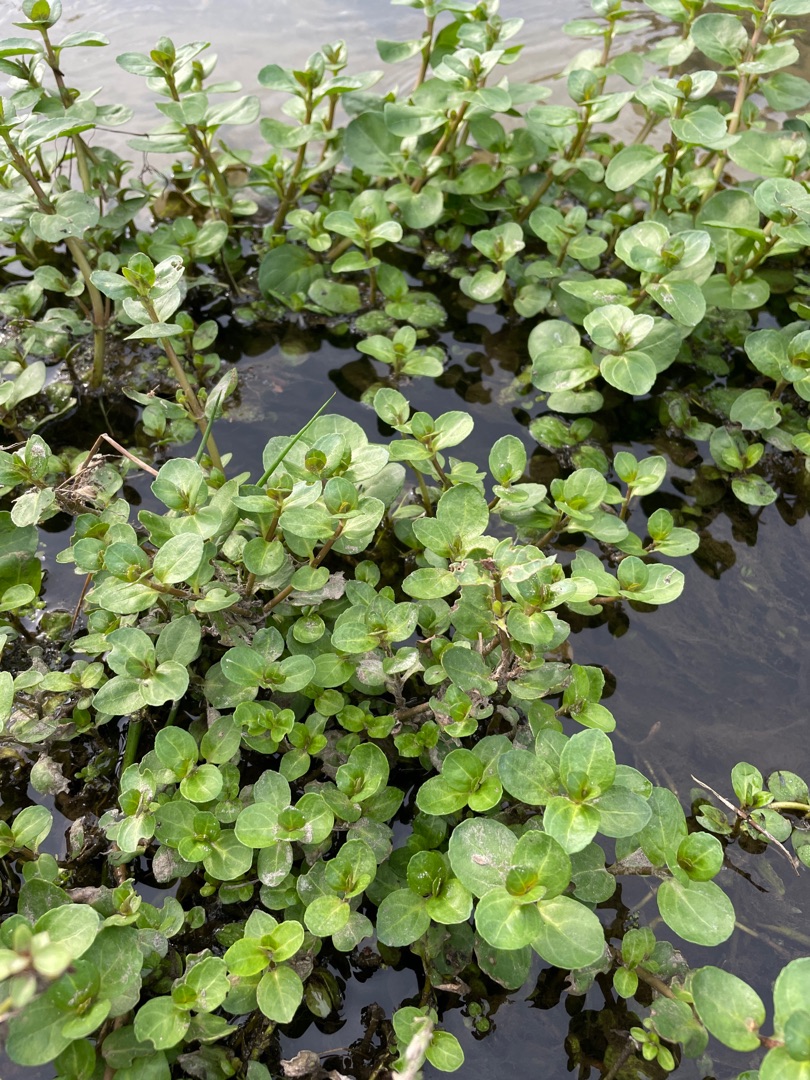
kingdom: Plantae
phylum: Tracheophyta
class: Magnoliopsida
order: Lamiales
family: Plantaginaceae
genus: Veronica
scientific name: Veronica beccabunga
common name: Tykbladet ærenpris
